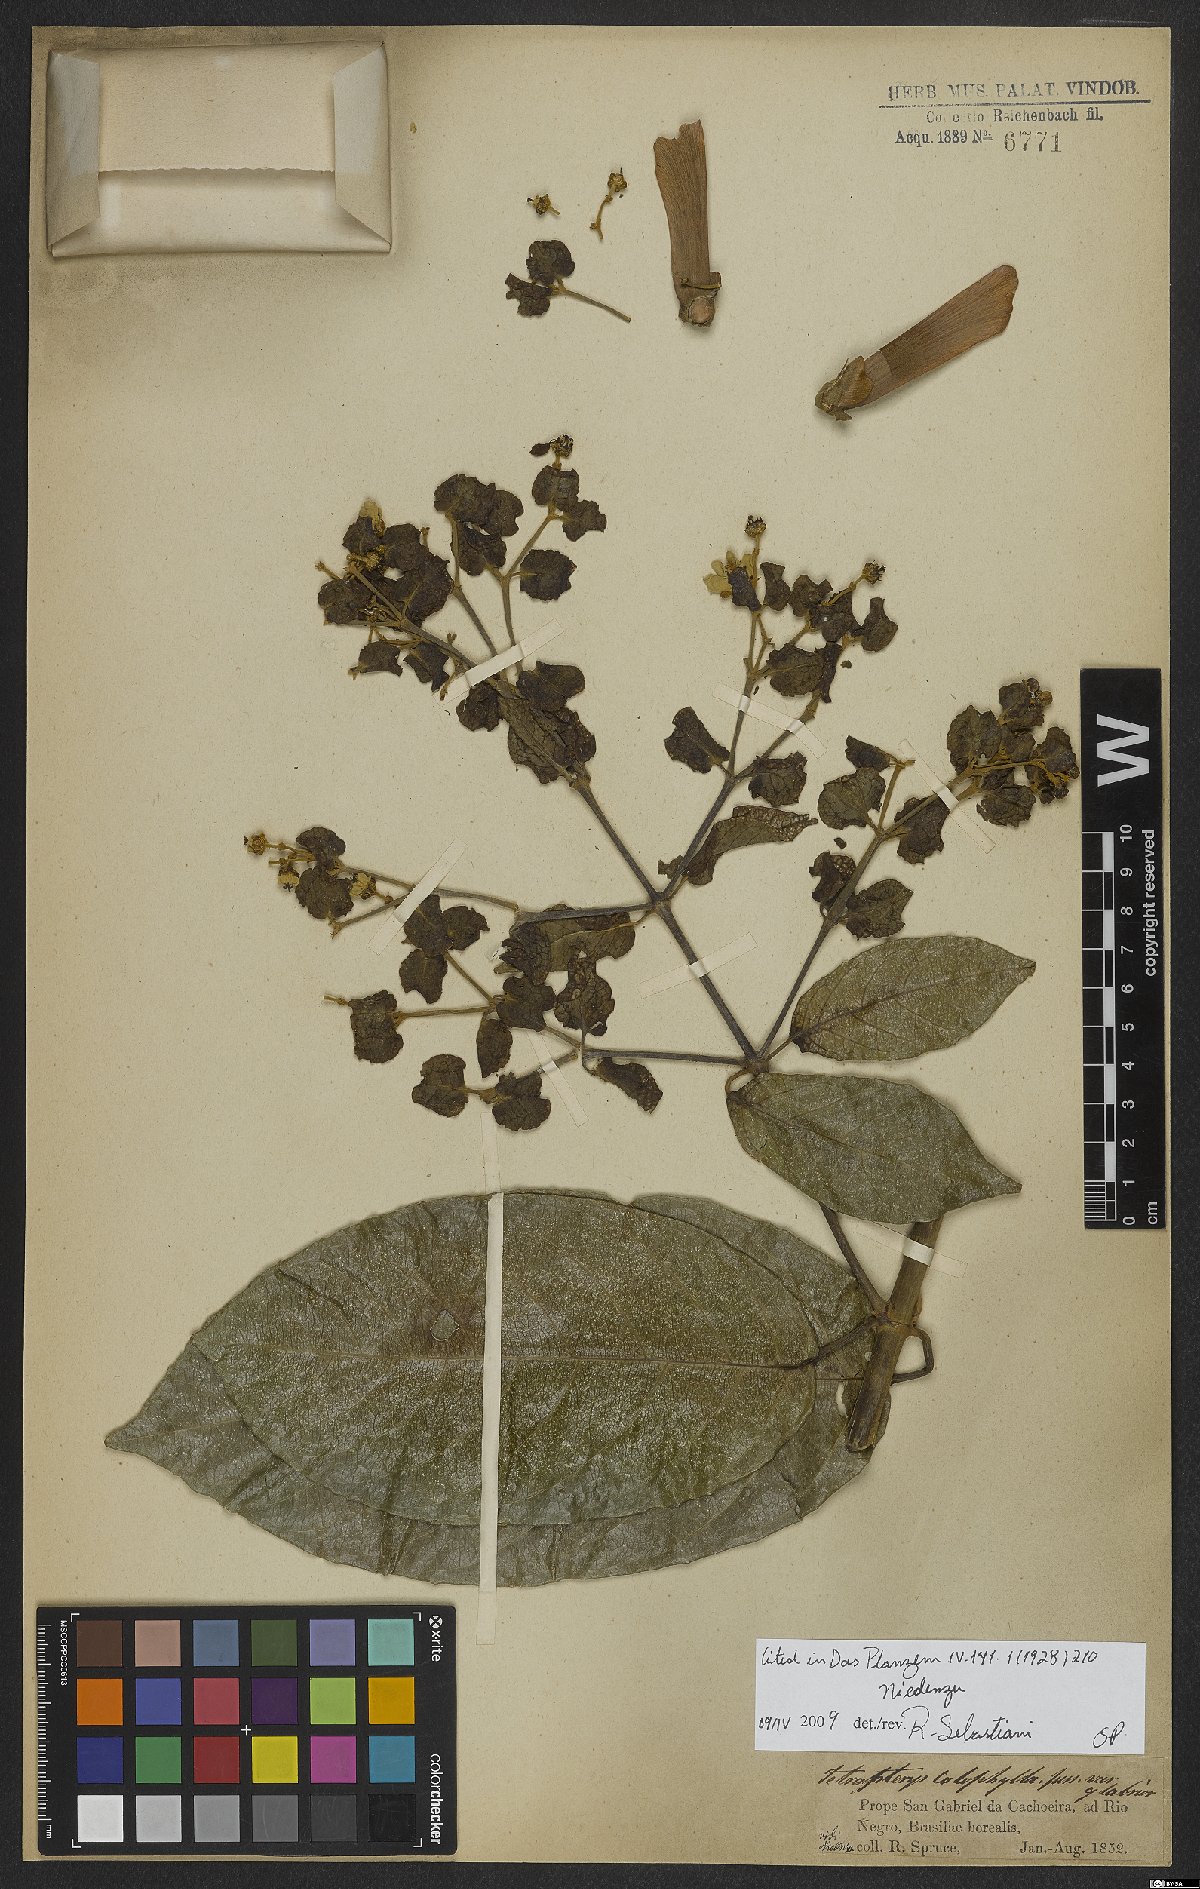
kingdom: Plantae
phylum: Tracheophyta
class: Magnoliopsida
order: Malpighiales
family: Malpighiaceae
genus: Tetrapterys
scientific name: Tetrapterys
